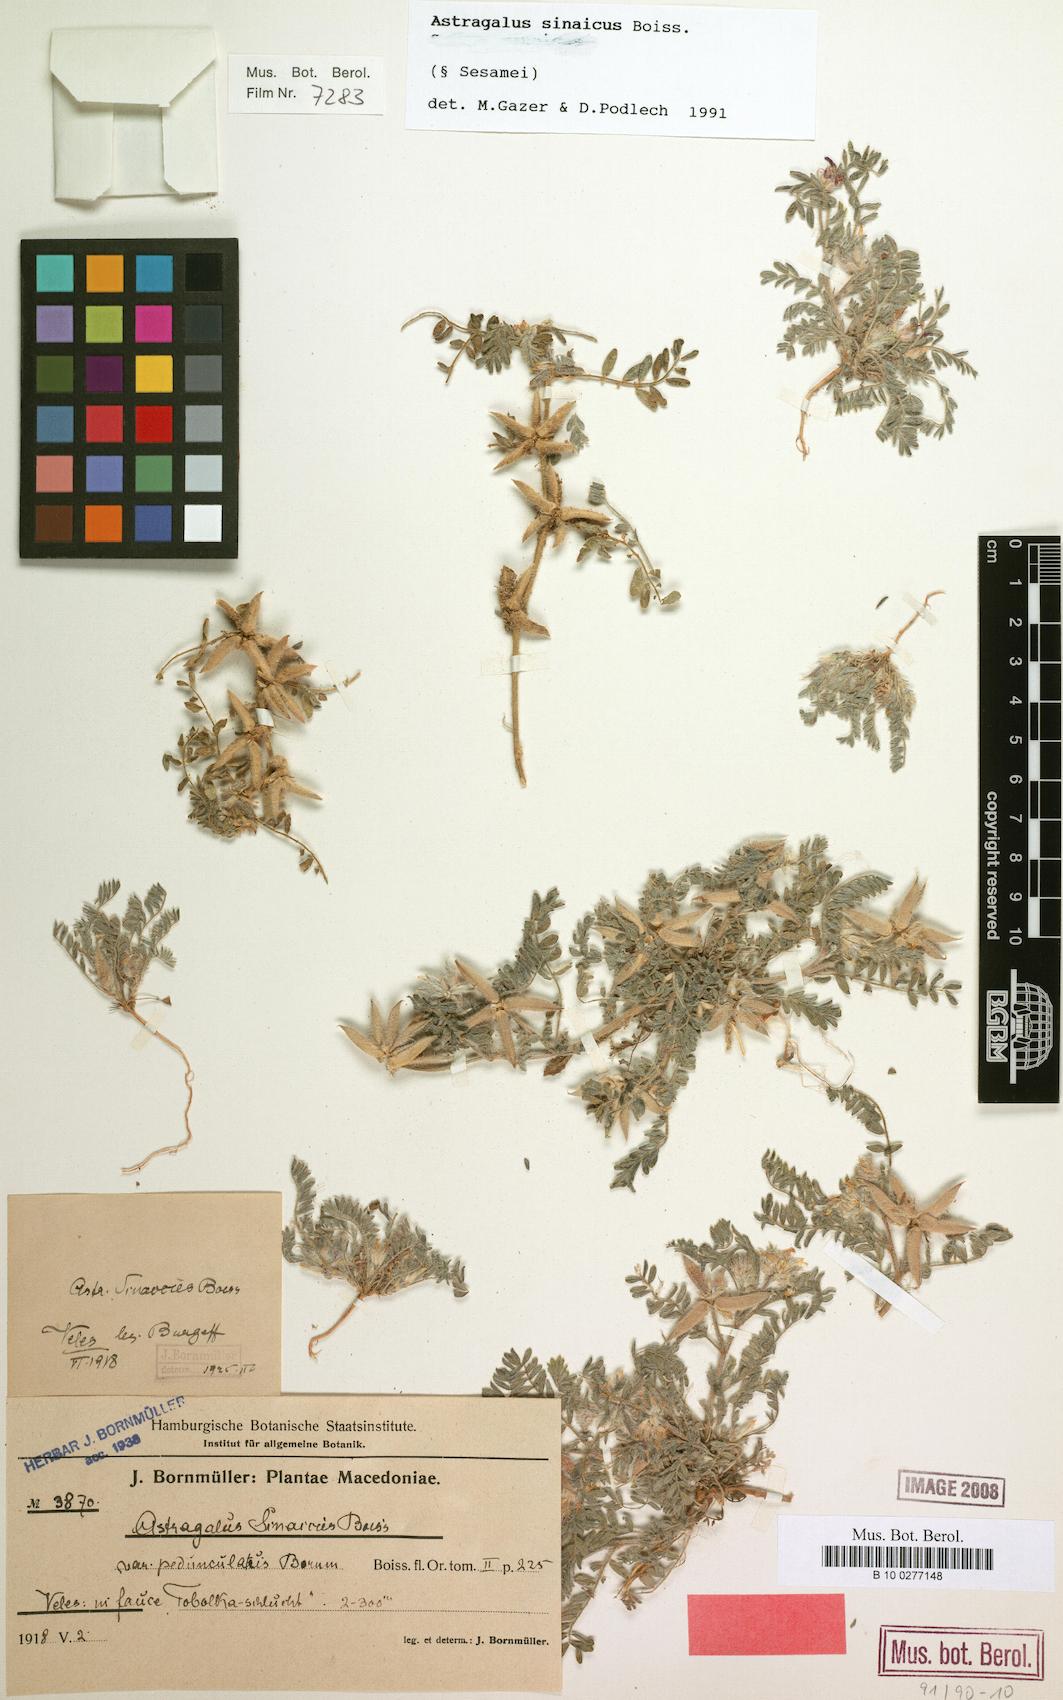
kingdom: Plantae
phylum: Tracheophyta
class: Magnoliopsida
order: Fabales
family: Fabaceae
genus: Astragalus
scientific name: Astragalus sinaicus
